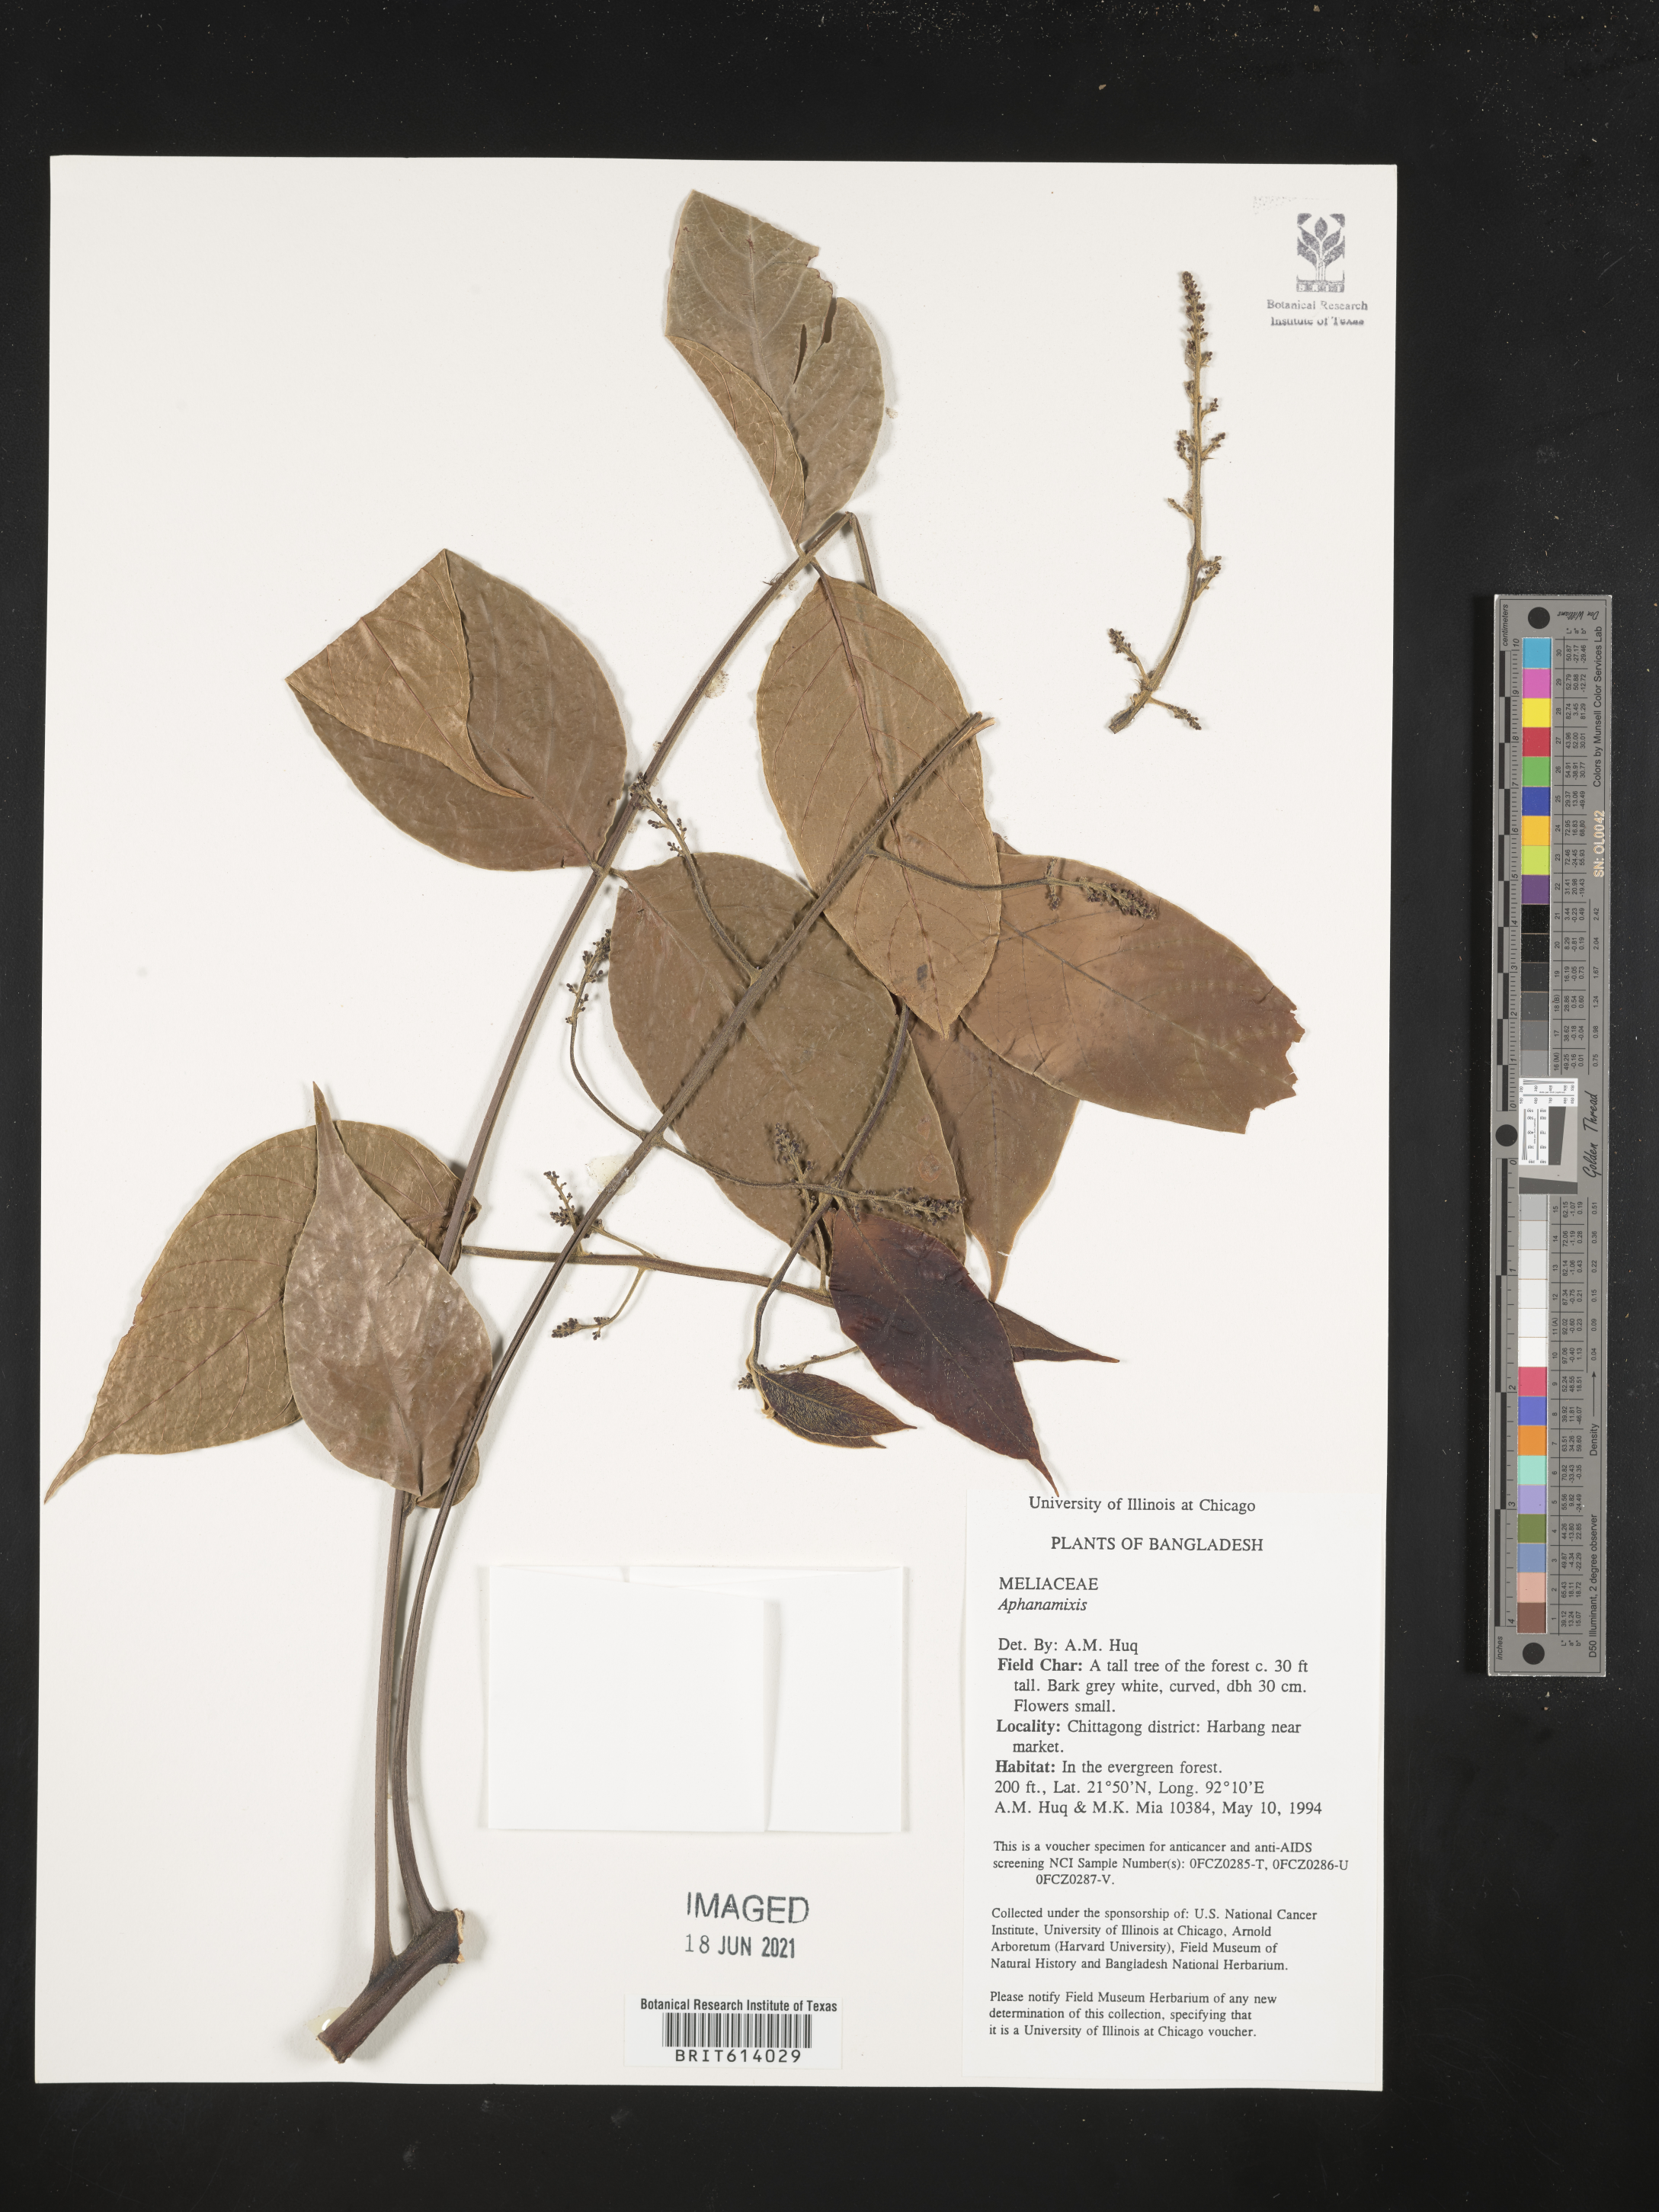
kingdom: Plantae
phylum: Tracheophyta
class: Magnoliopsida
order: Sapindales
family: Meliaceae
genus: Aphanamixis
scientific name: Aphanamixis
